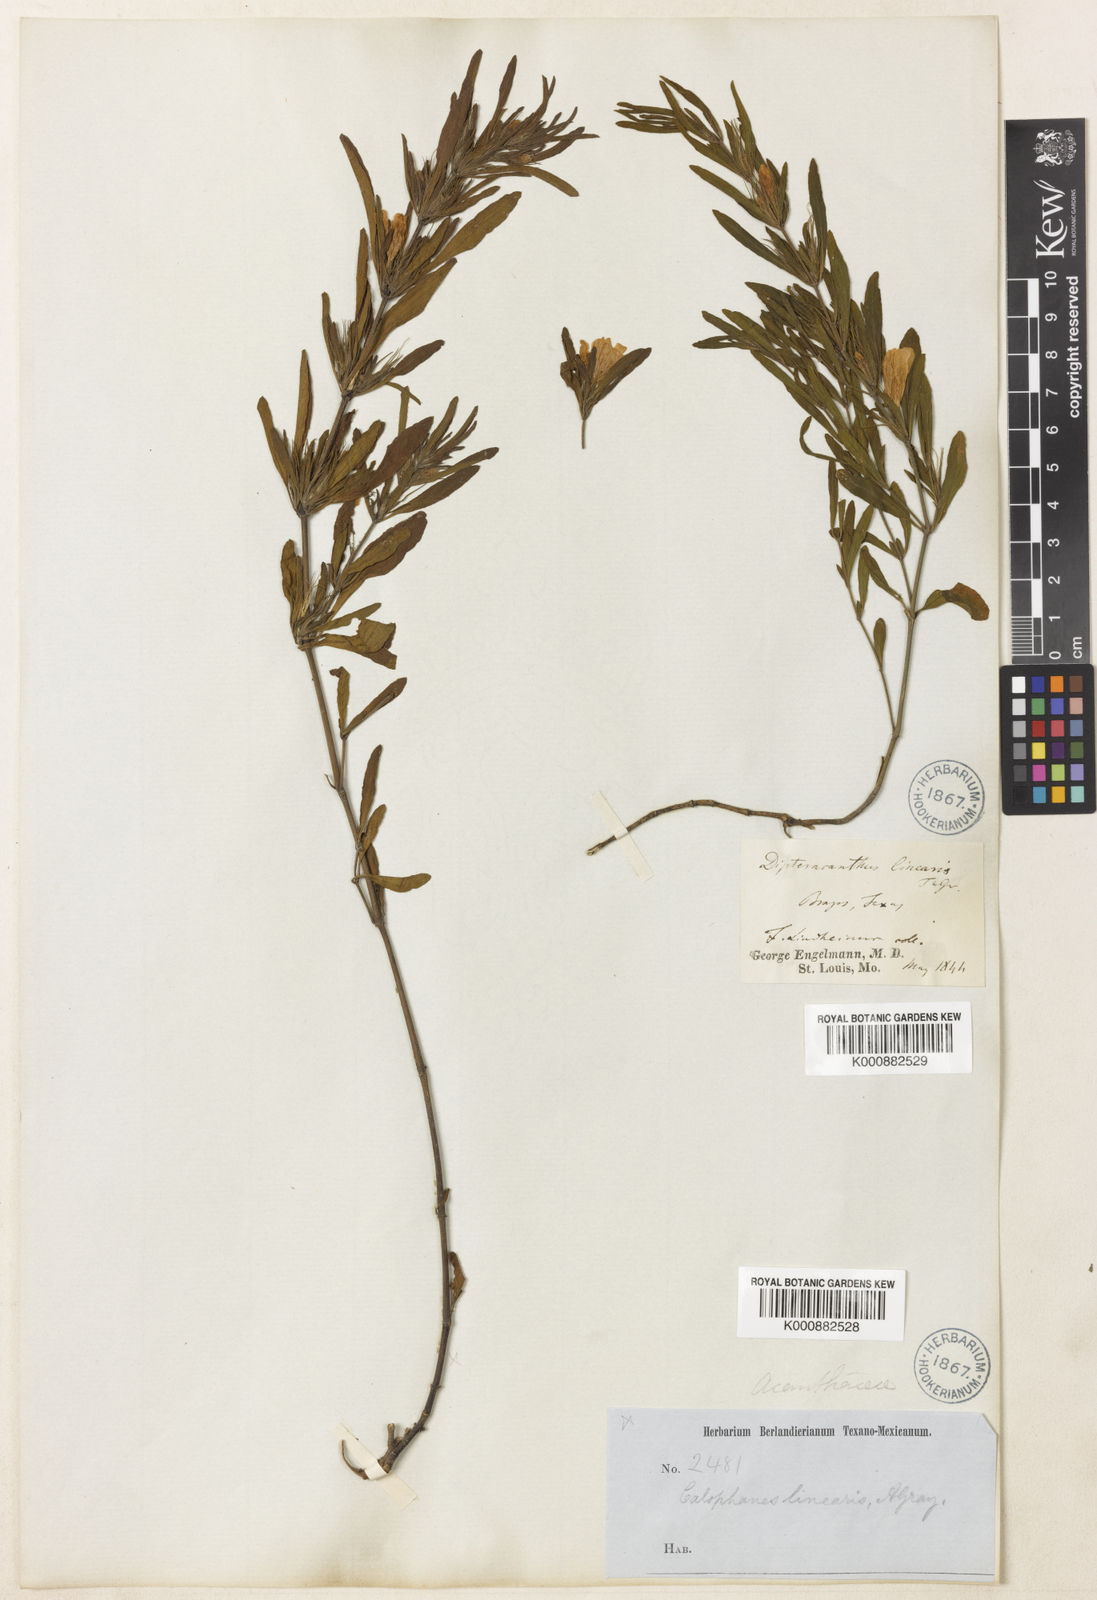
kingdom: Plantae
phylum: Tracheophyta
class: Magnoliopsida
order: Lamiales
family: Acanthaceae
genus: Dyschoriste
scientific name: Dyschoriste linearis
